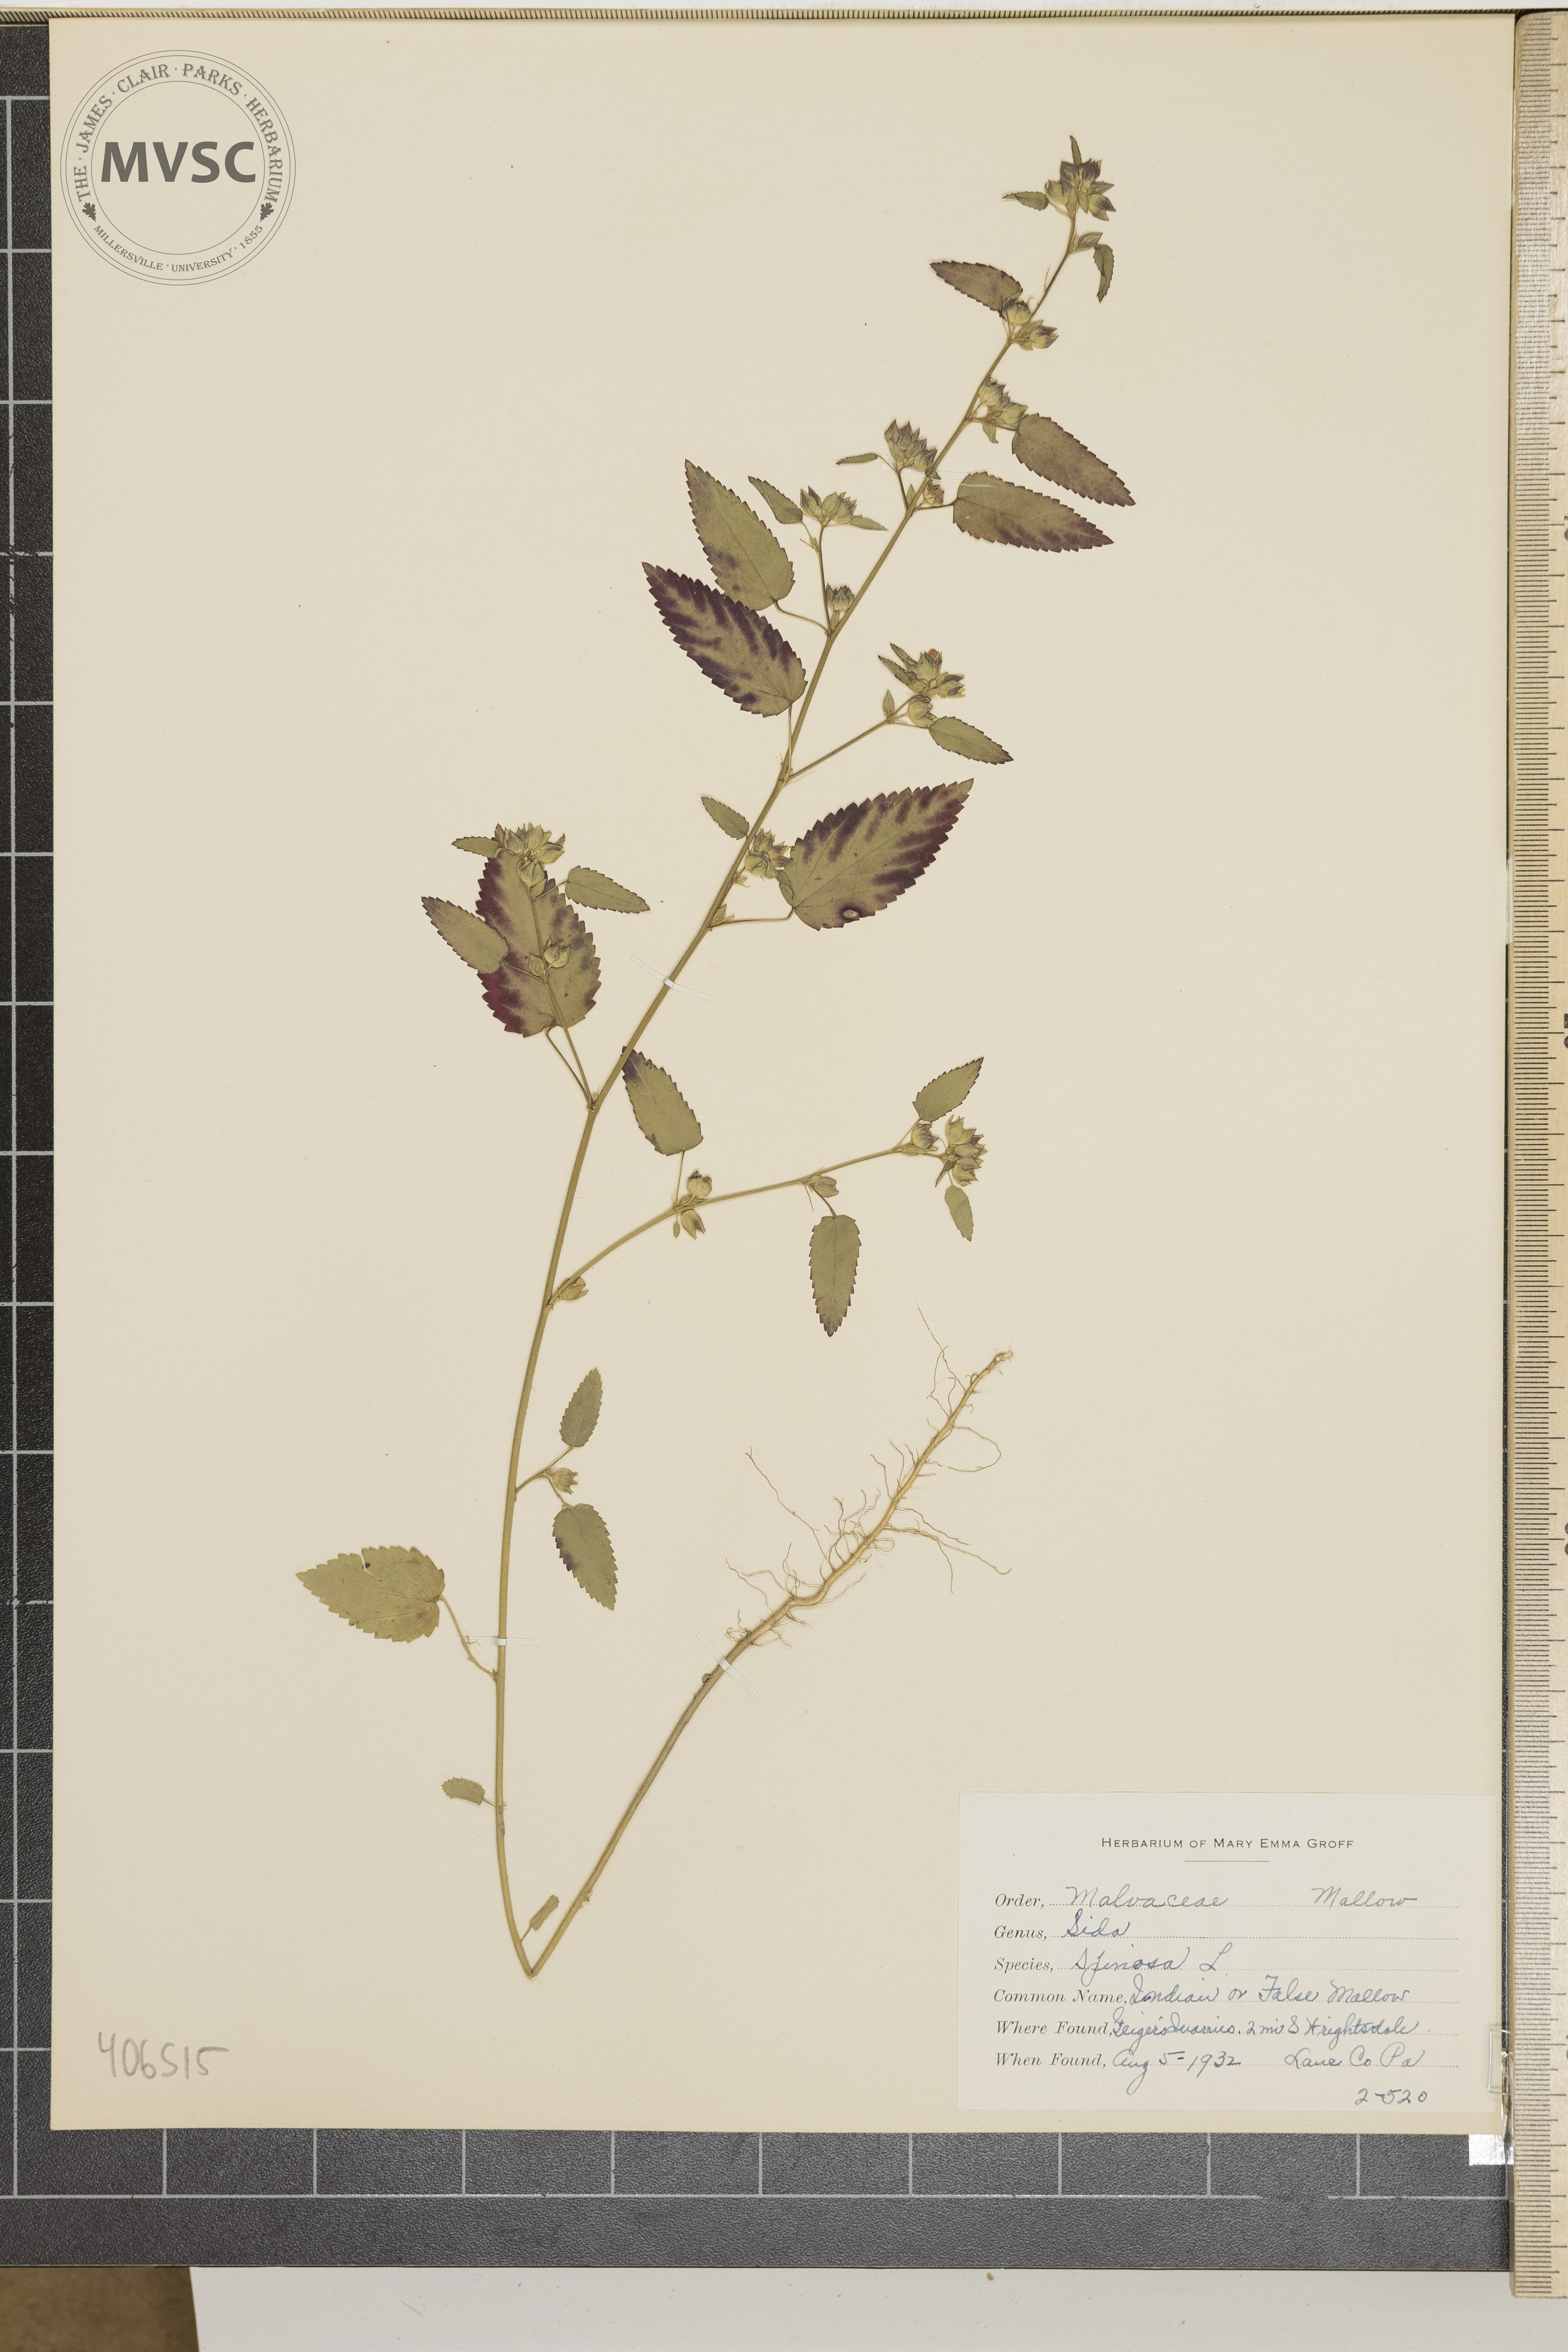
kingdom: Plantae
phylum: Tracheophyta
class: Magnoliopsida
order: Malvales
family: Malvaceae
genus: Sida
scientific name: Sida spinosa
